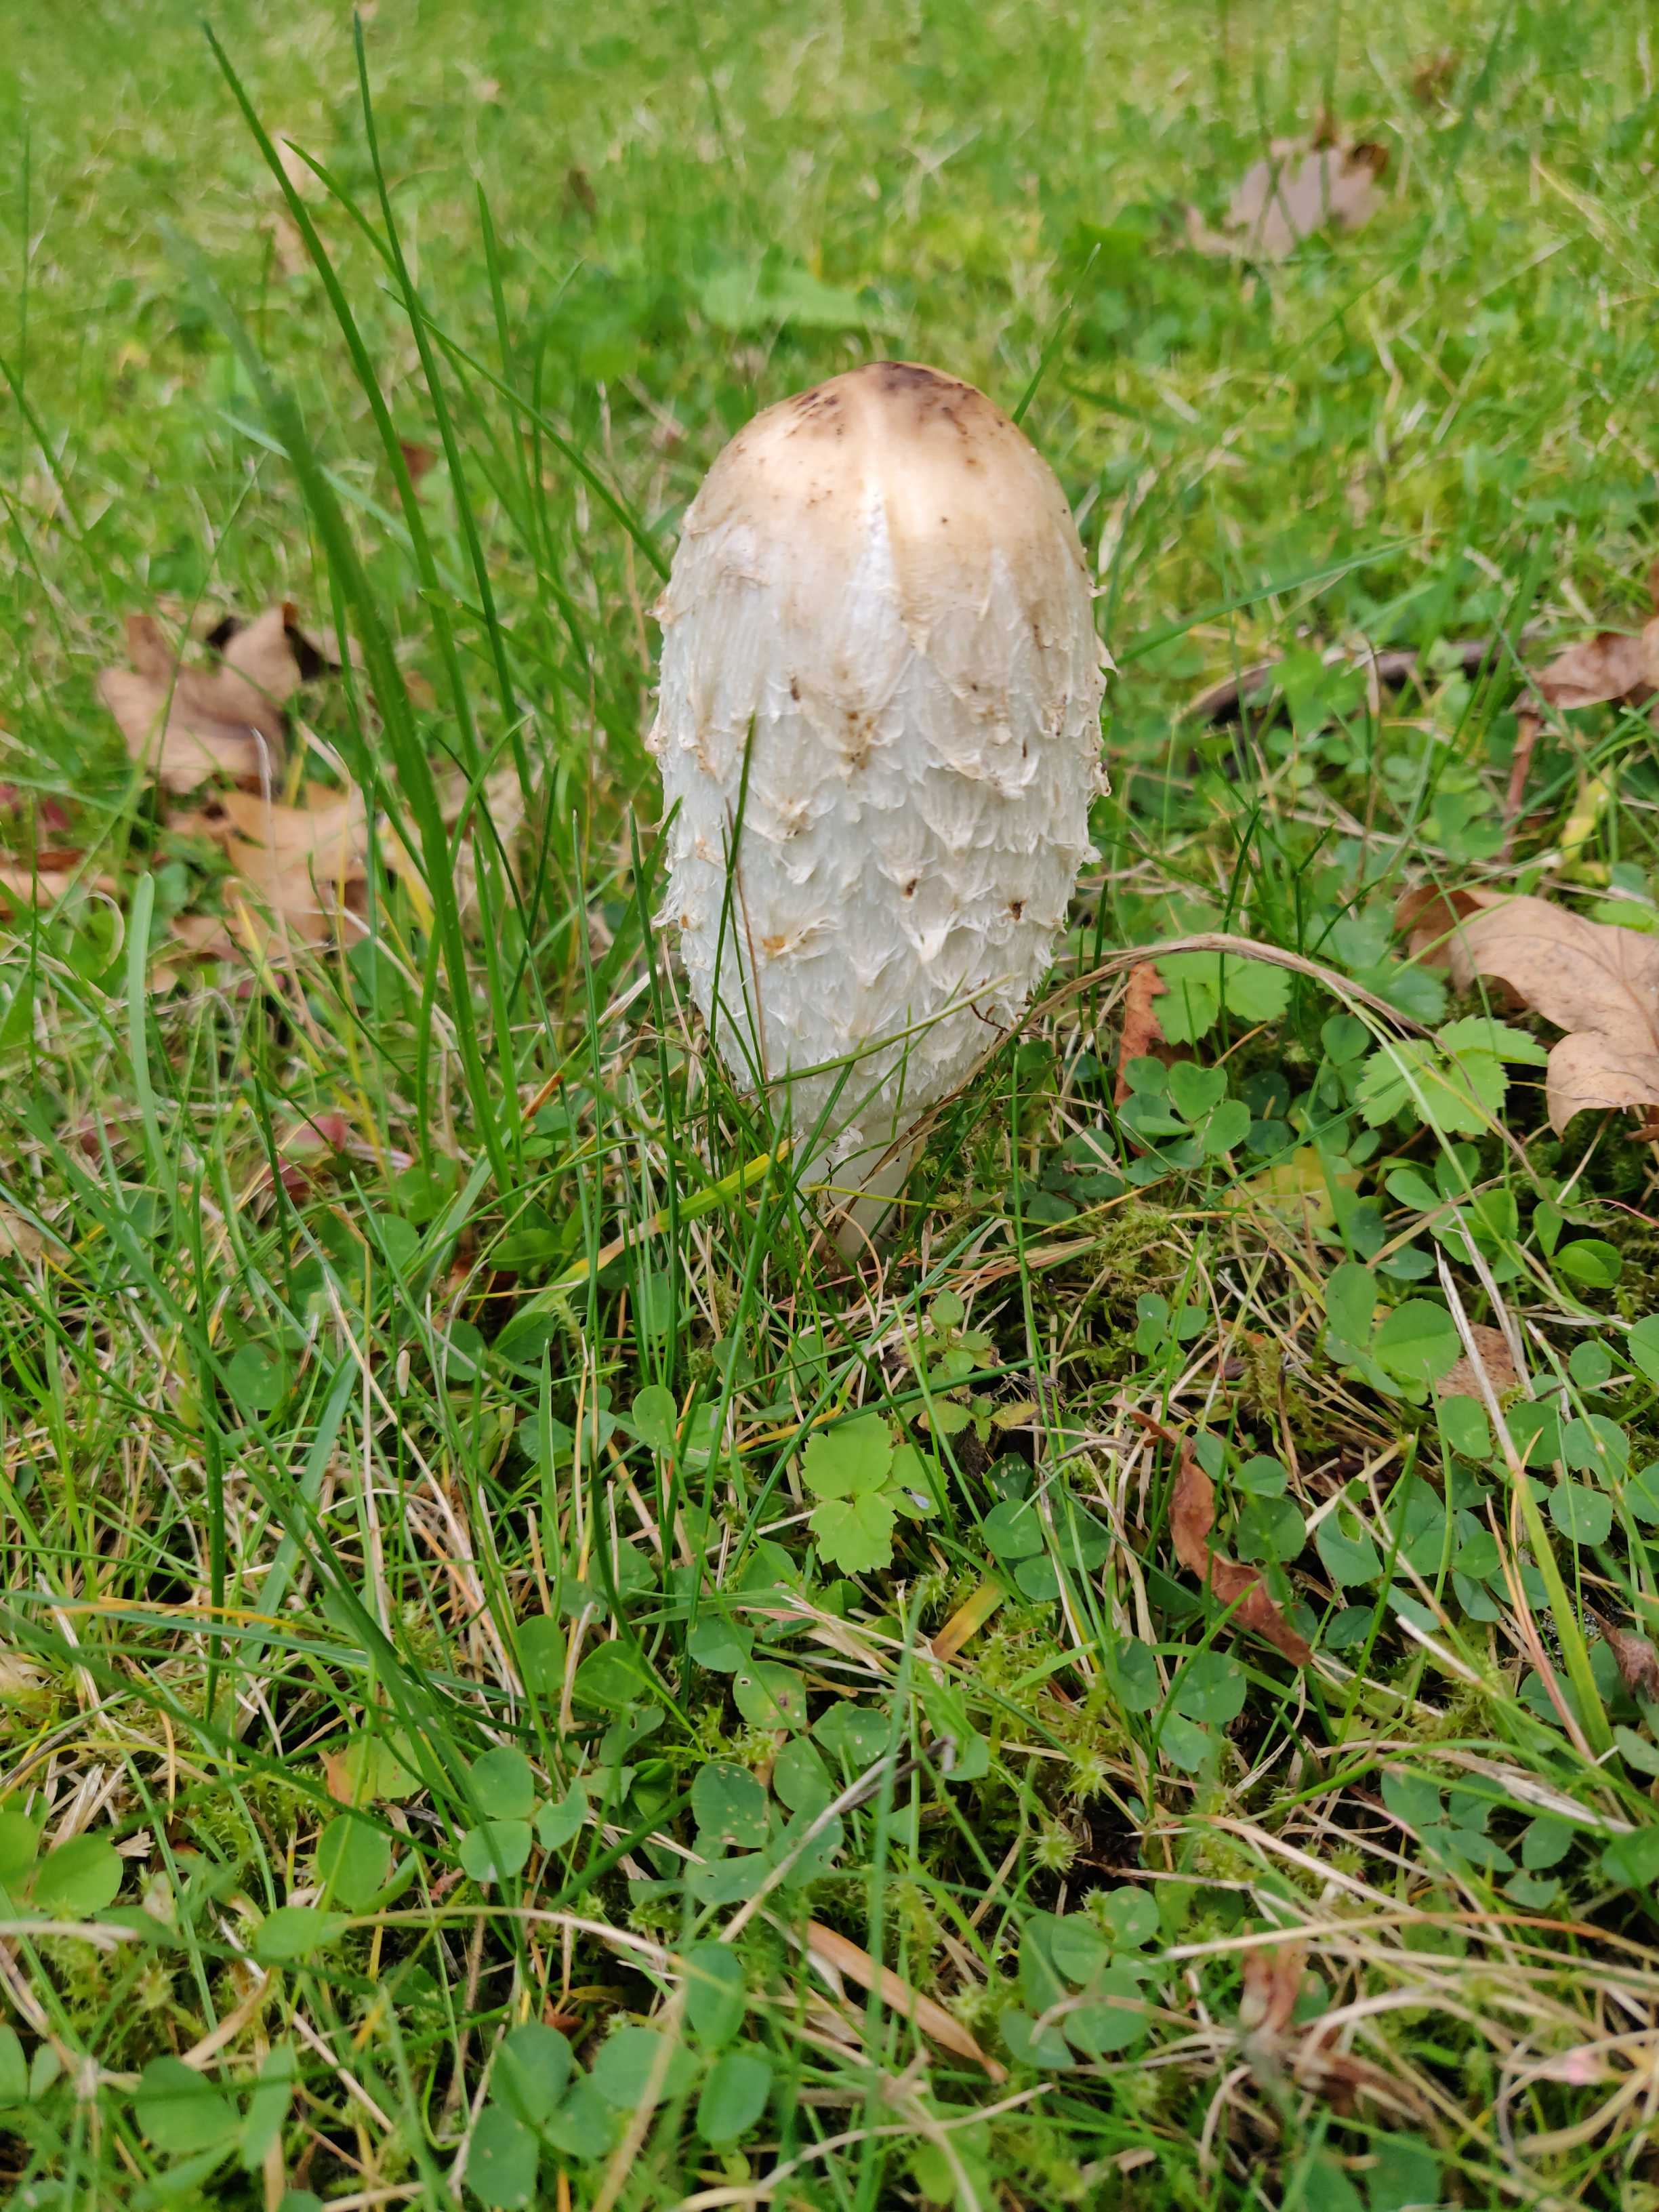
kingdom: Fungi
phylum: Basidiomycota
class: Agaricomycetes
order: Agaricales
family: Agaricaceae
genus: Coprinus
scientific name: Coprinus comatus
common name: stor parykhat
